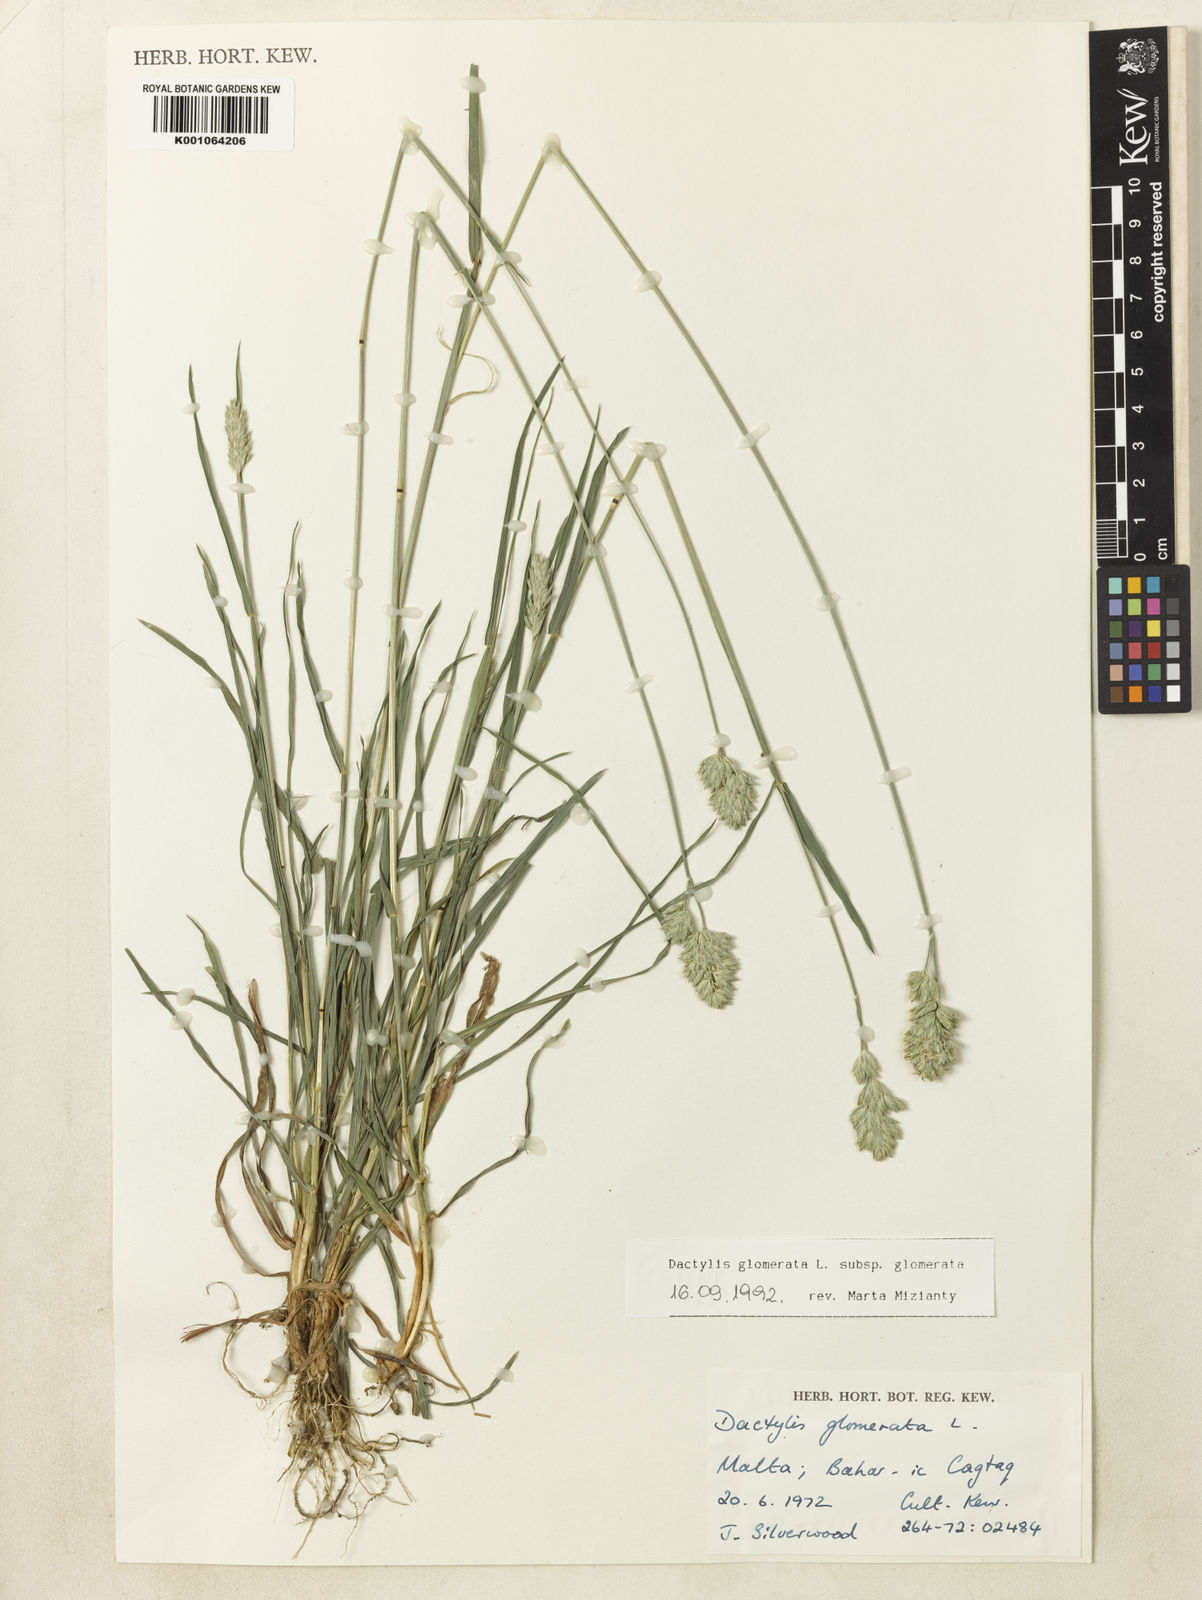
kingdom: Plantae
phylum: Tracheophyta
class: Liliopsida
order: Poales
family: Poaceae
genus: Dactylis
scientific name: Dactylis glomerata
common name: Orchardgrass
